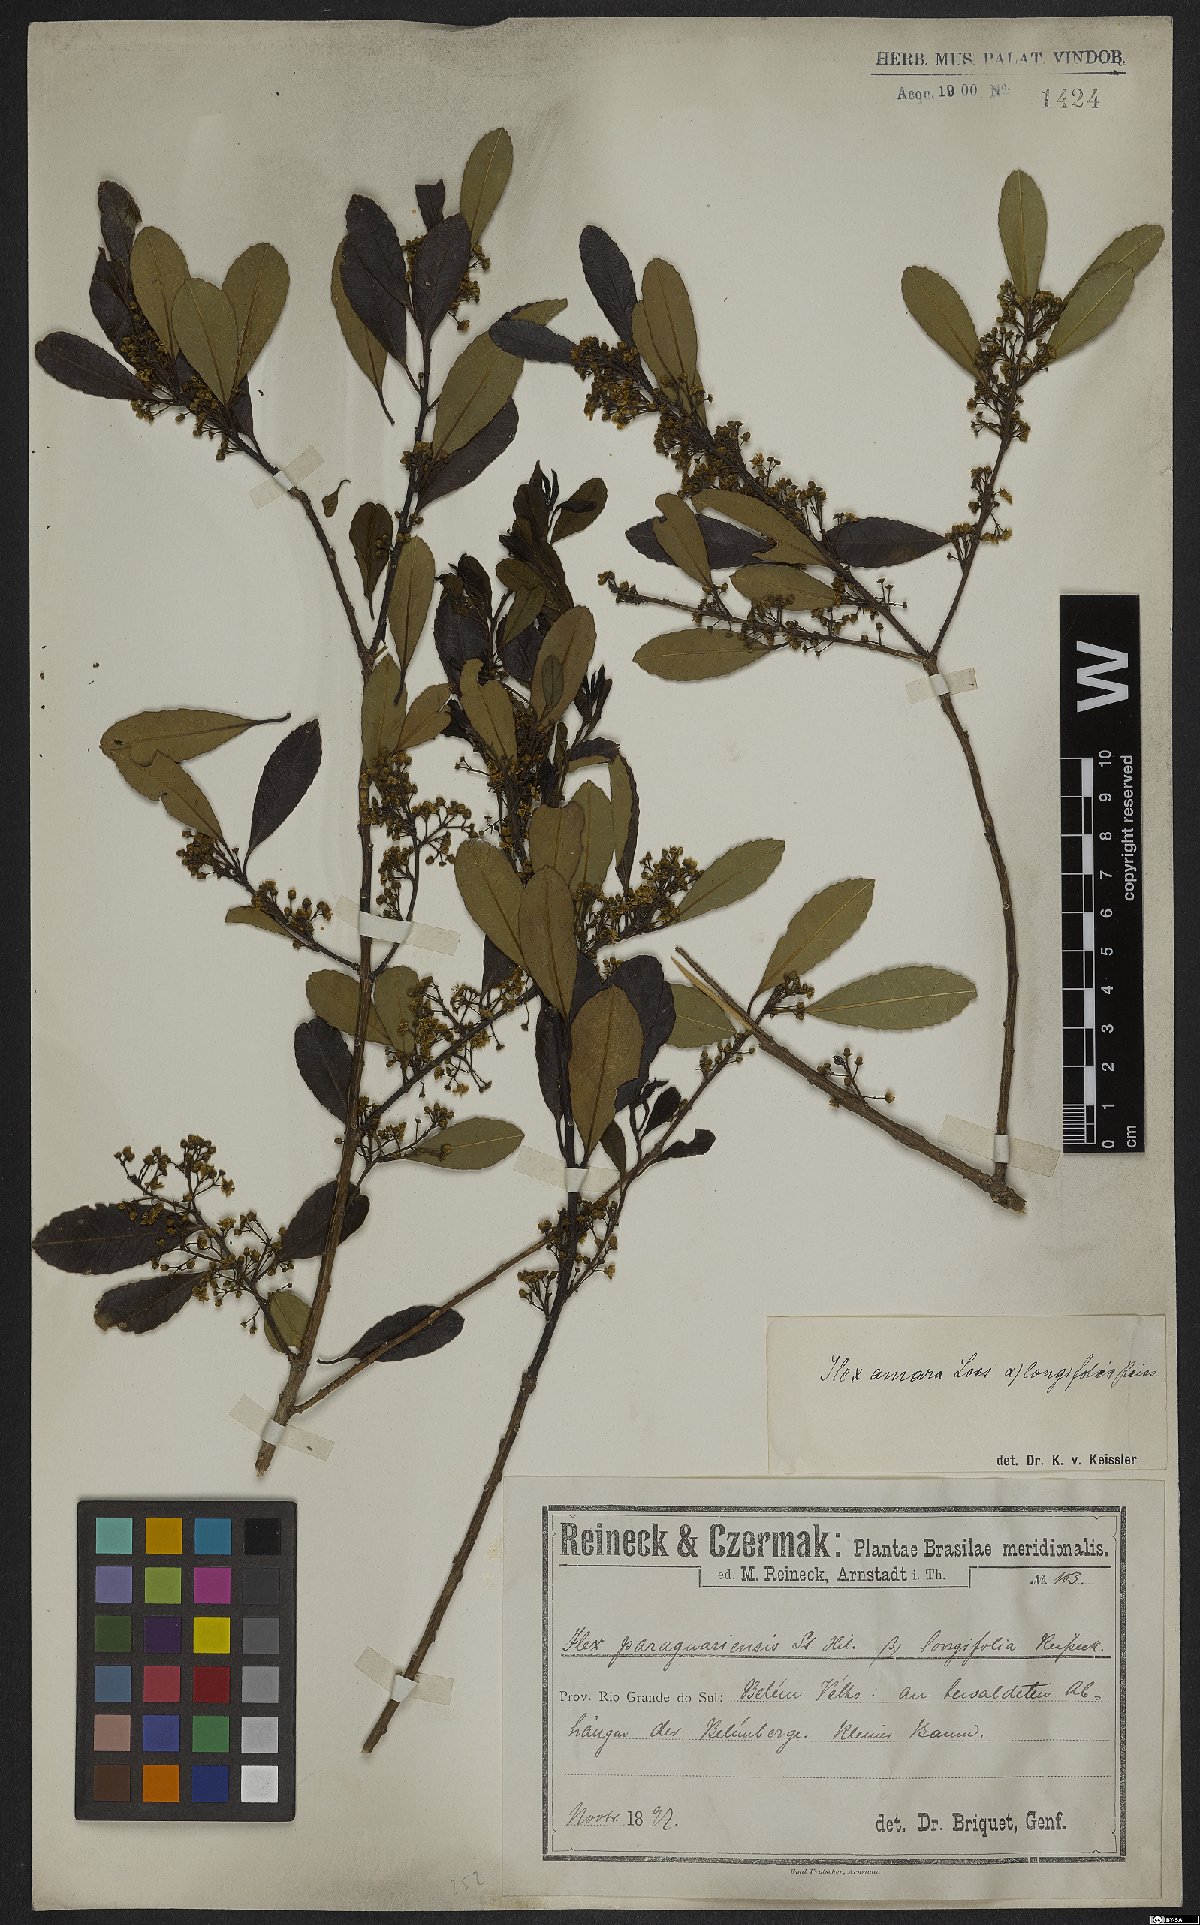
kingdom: Plantae
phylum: Tracheophyta
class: Magnoliopsida
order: Aquifoliales
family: Aquifoliaceae
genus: Ilex
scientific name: Ilex dumosa
